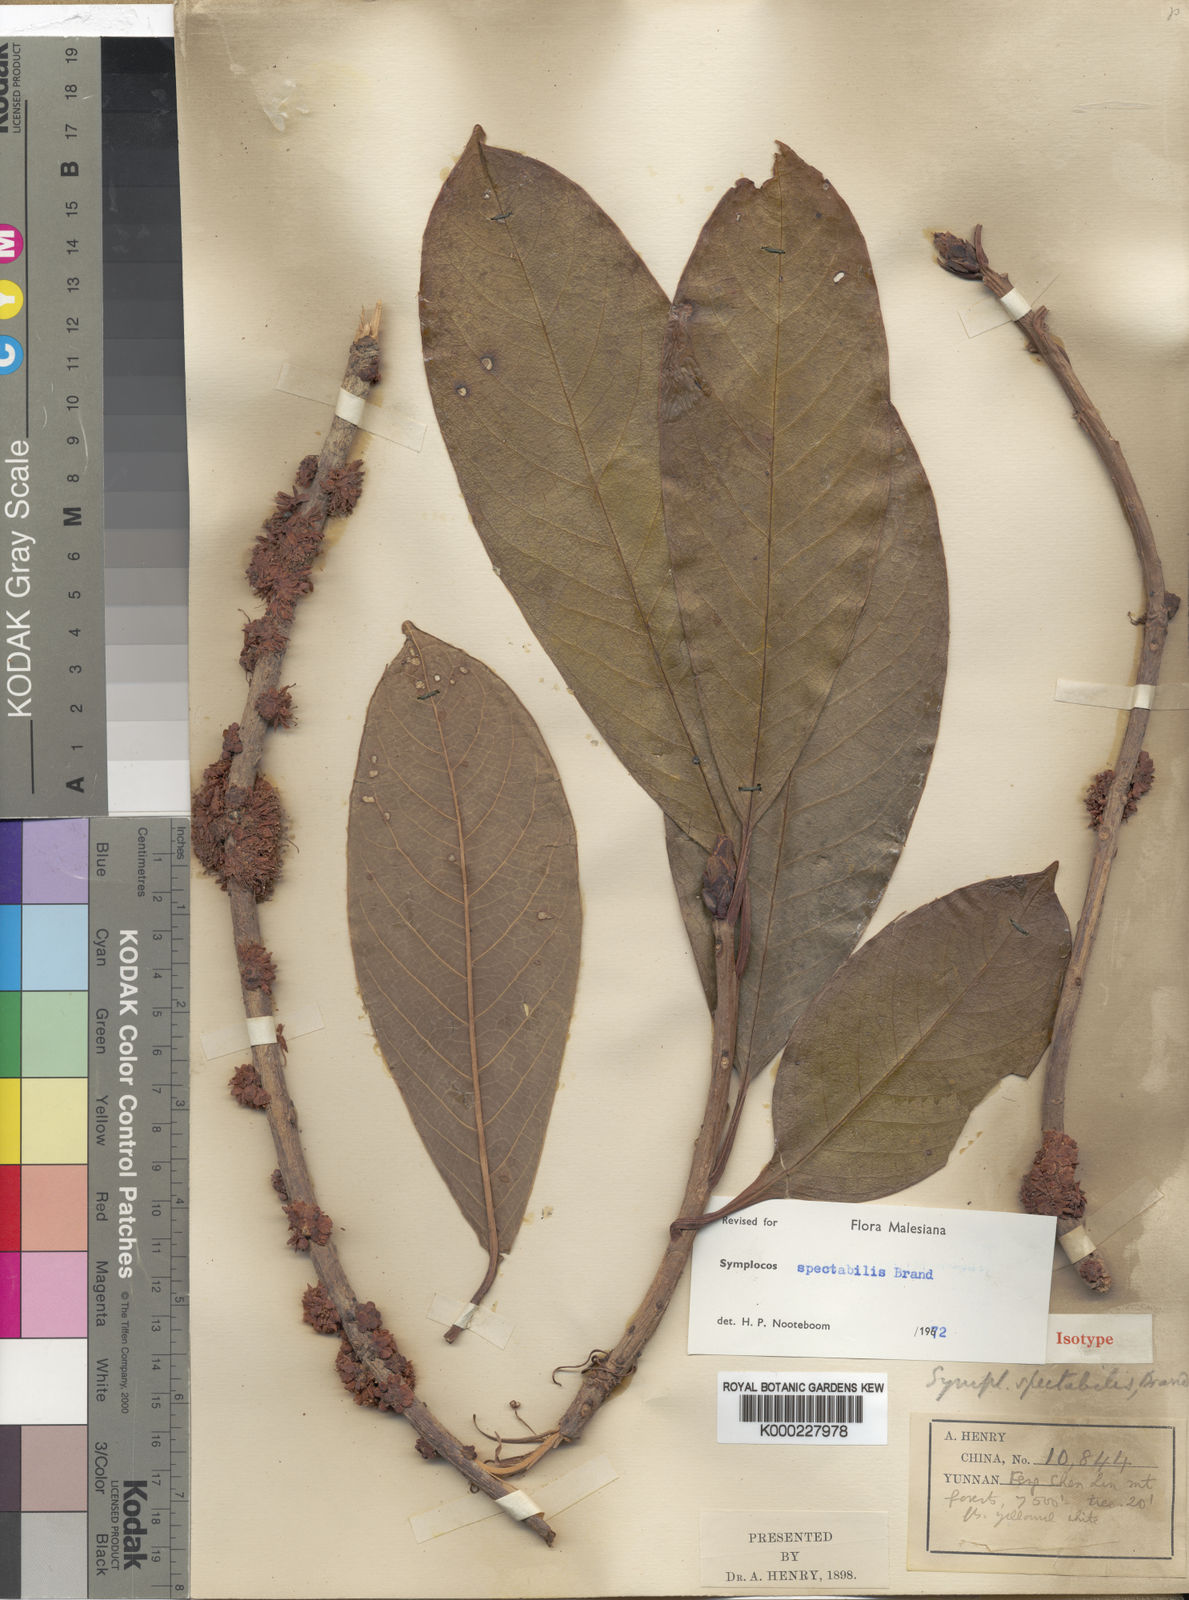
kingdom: Plantae
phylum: Tracheophyta
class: Magnoliopsida
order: Ericales
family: Symplocaceae
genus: Symplocos
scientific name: Symplocos spectabilis
